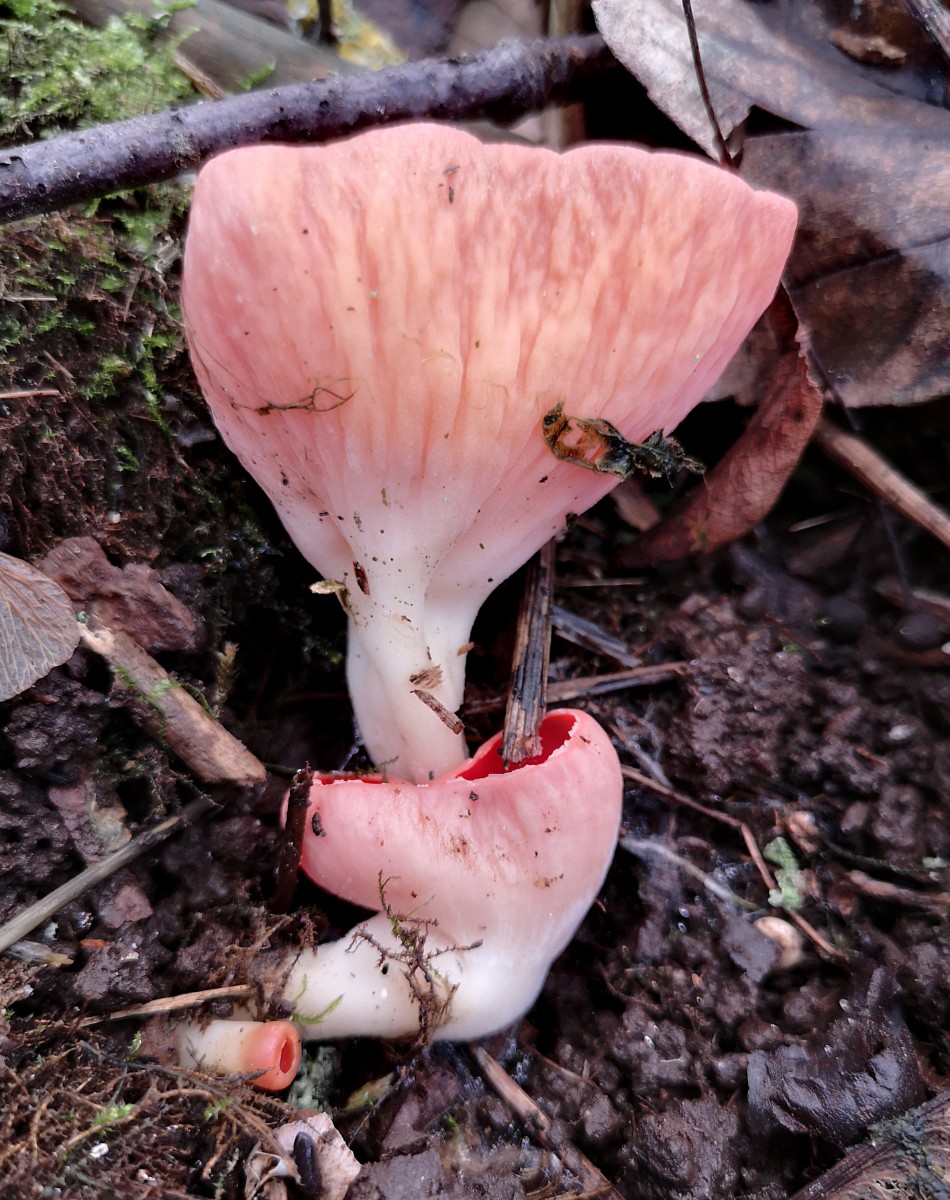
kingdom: Fungi
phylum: Ascomycota
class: Pezizomycetes
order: Pezizales
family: Sarcoscyphaceae
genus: Sarcoscypha
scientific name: Sarcoscypha austriaca
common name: krølhåret pragtbæger
